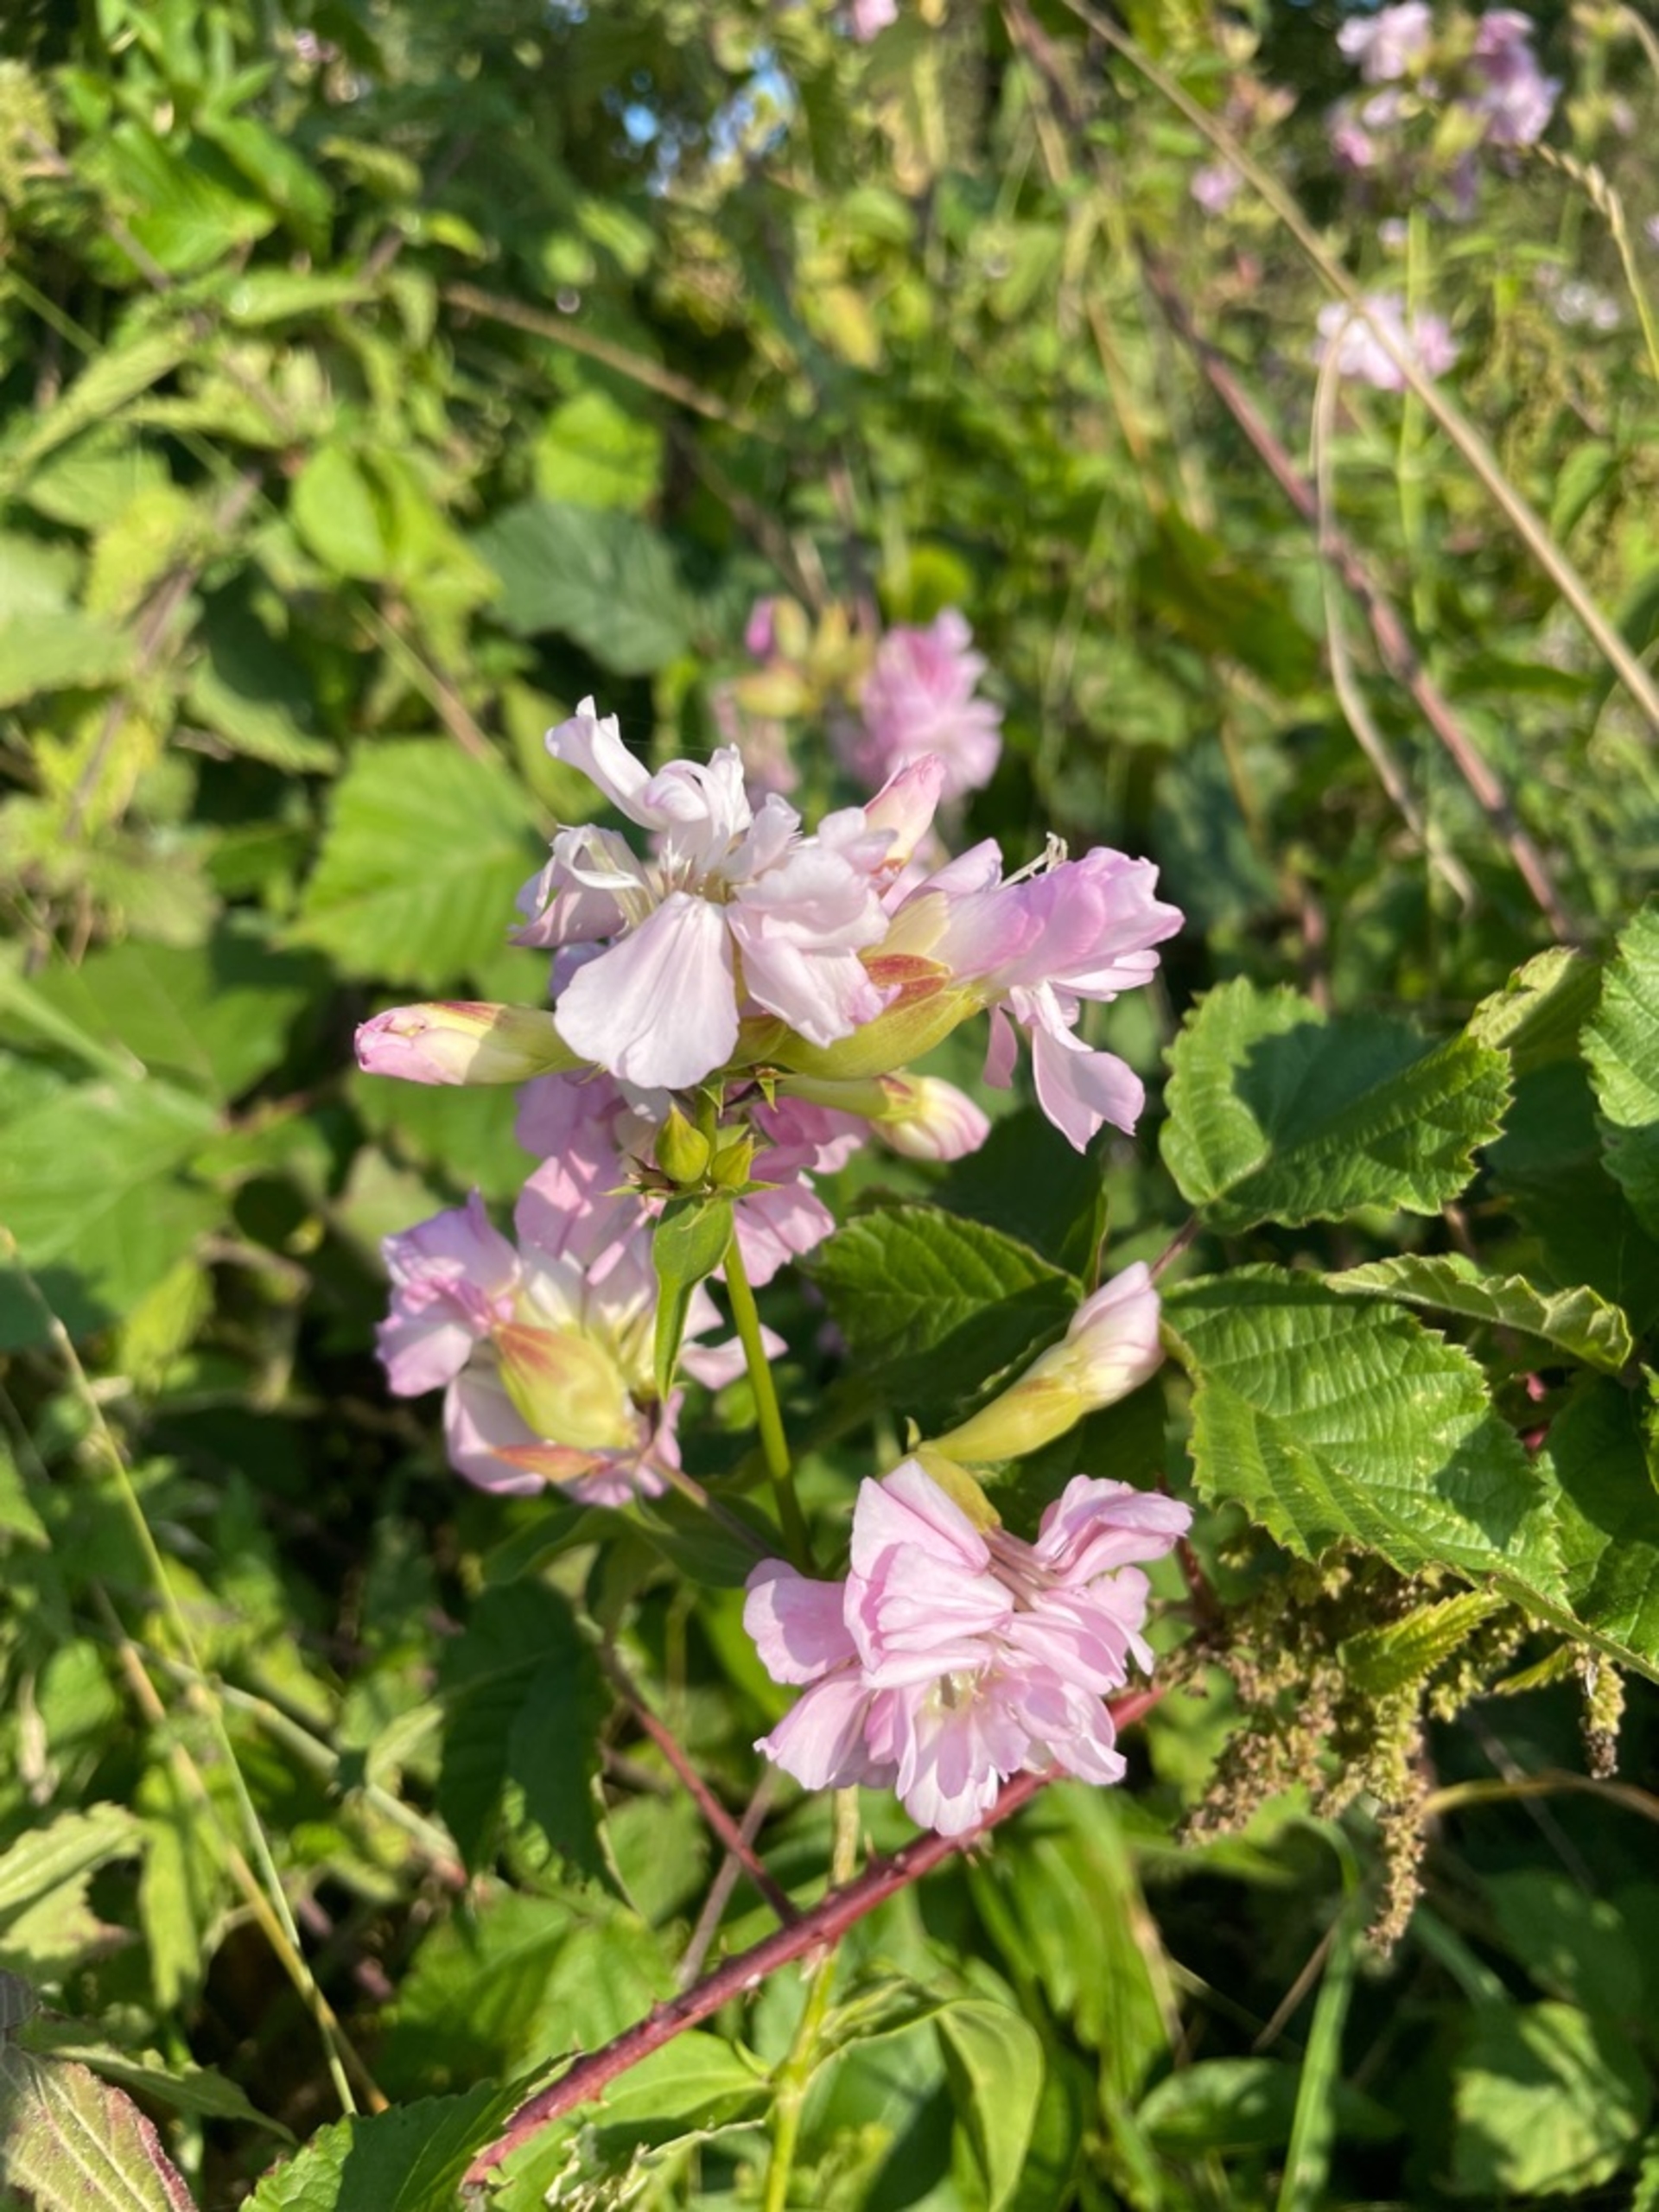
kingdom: Plantae
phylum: Tracheophyta
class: Magnoliopsida
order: Caryophyllales
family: Caryophyllaceae
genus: Saponaria
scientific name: Saponaria officinalis
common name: Sæbeurt
